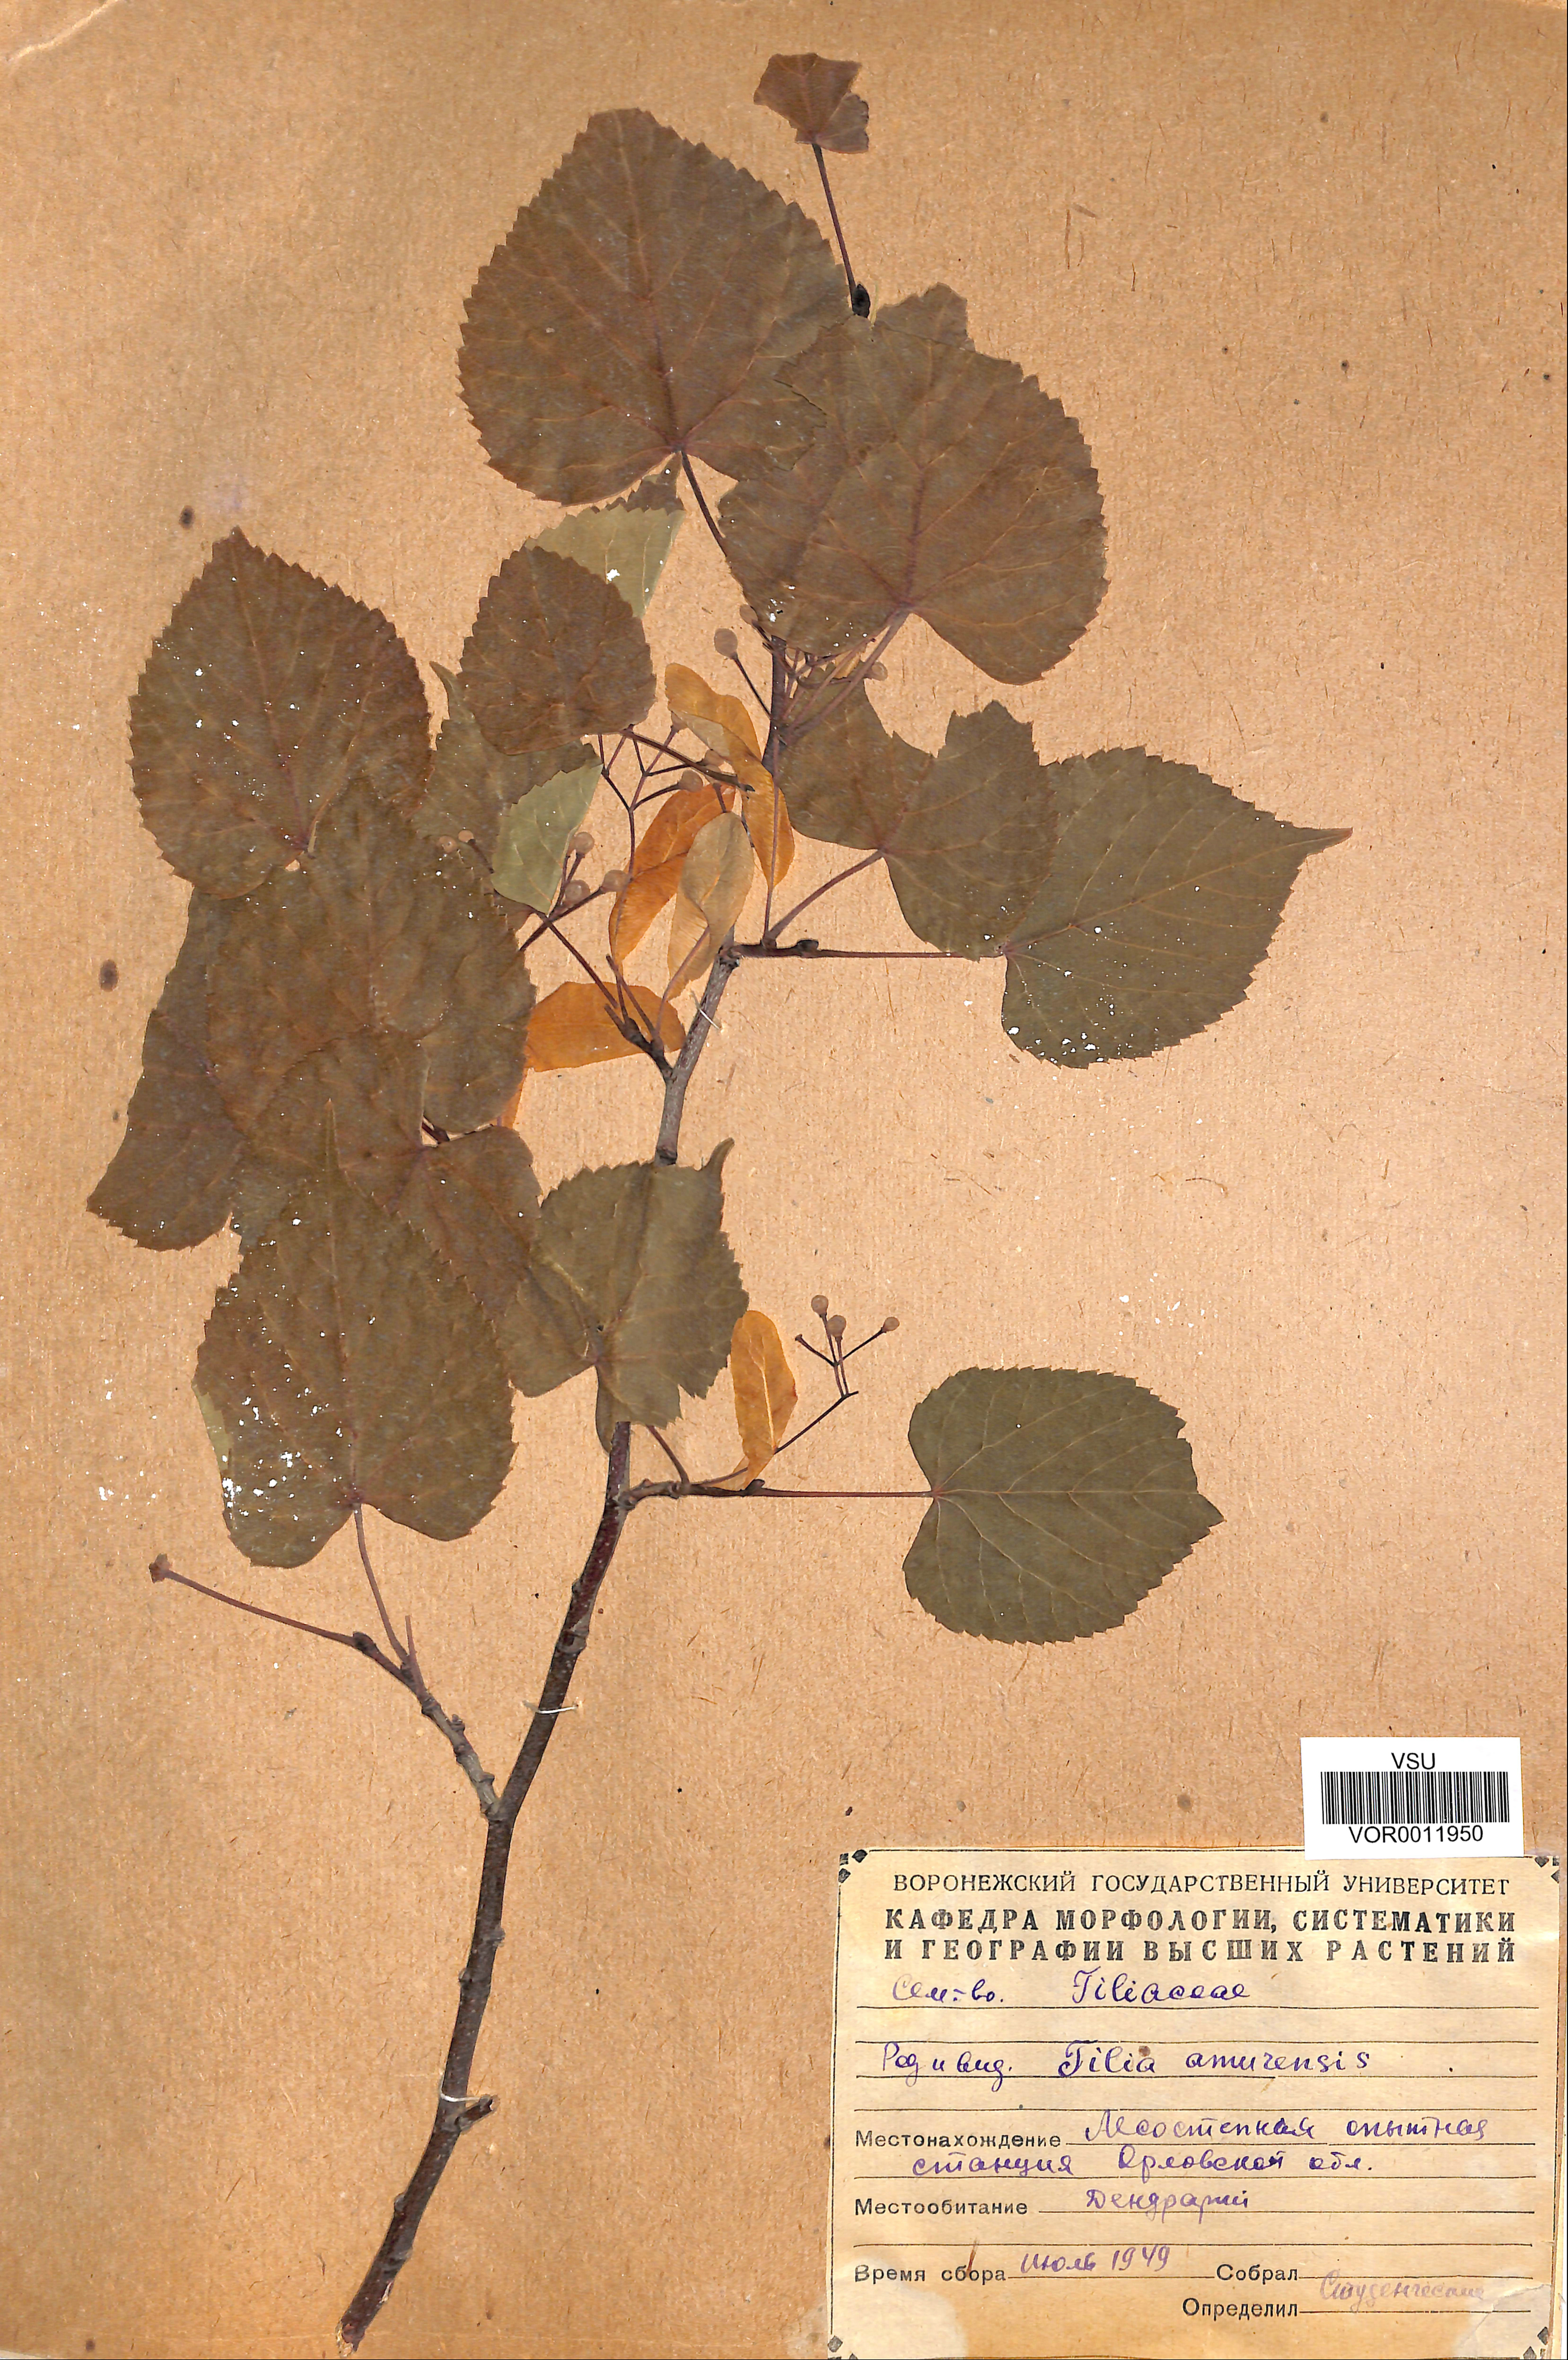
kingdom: Plantae
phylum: Tracheophyta
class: Magnoliopsida
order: Malvales
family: Malvaceae
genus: Tilia
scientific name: Tilia amurensis
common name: Amur lime
